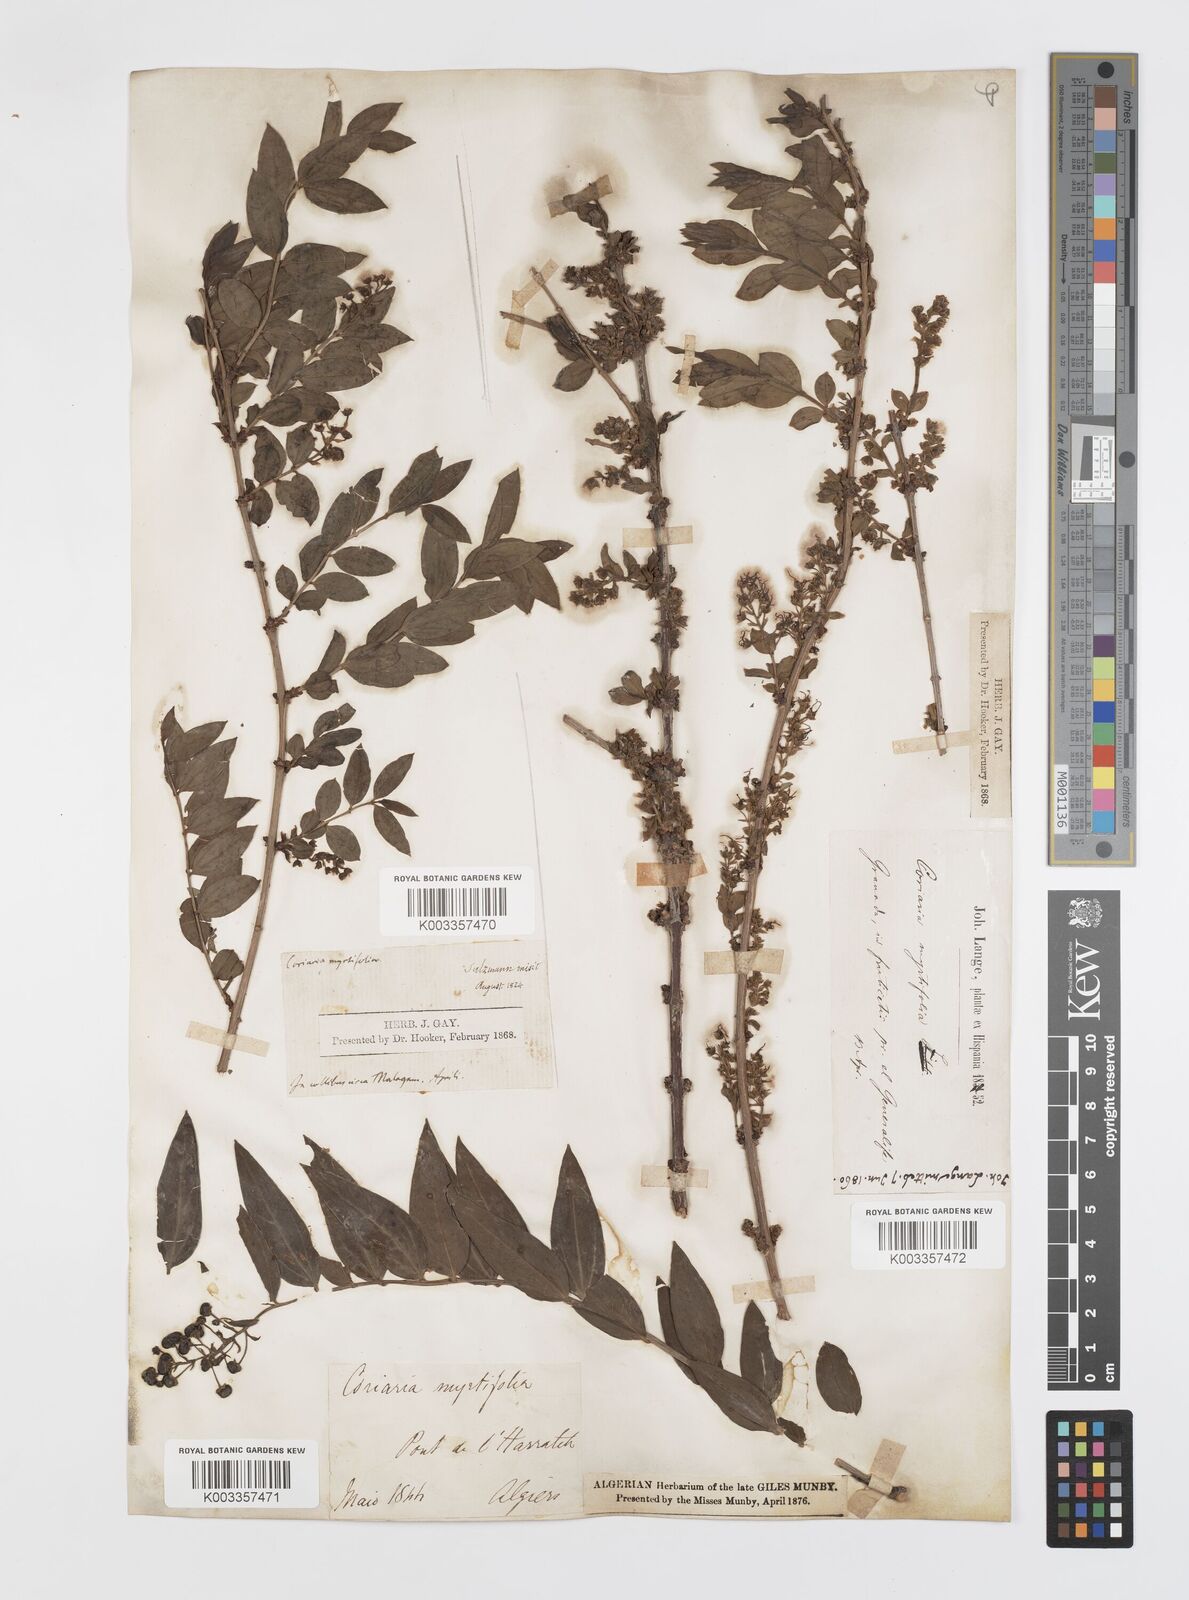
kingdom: Plantae
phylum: Tracheophyta
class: Magnoliopsida
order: Cucurbitales
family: Coriariaceae
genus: Coriaria
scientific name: Coriaria myrtifolia
